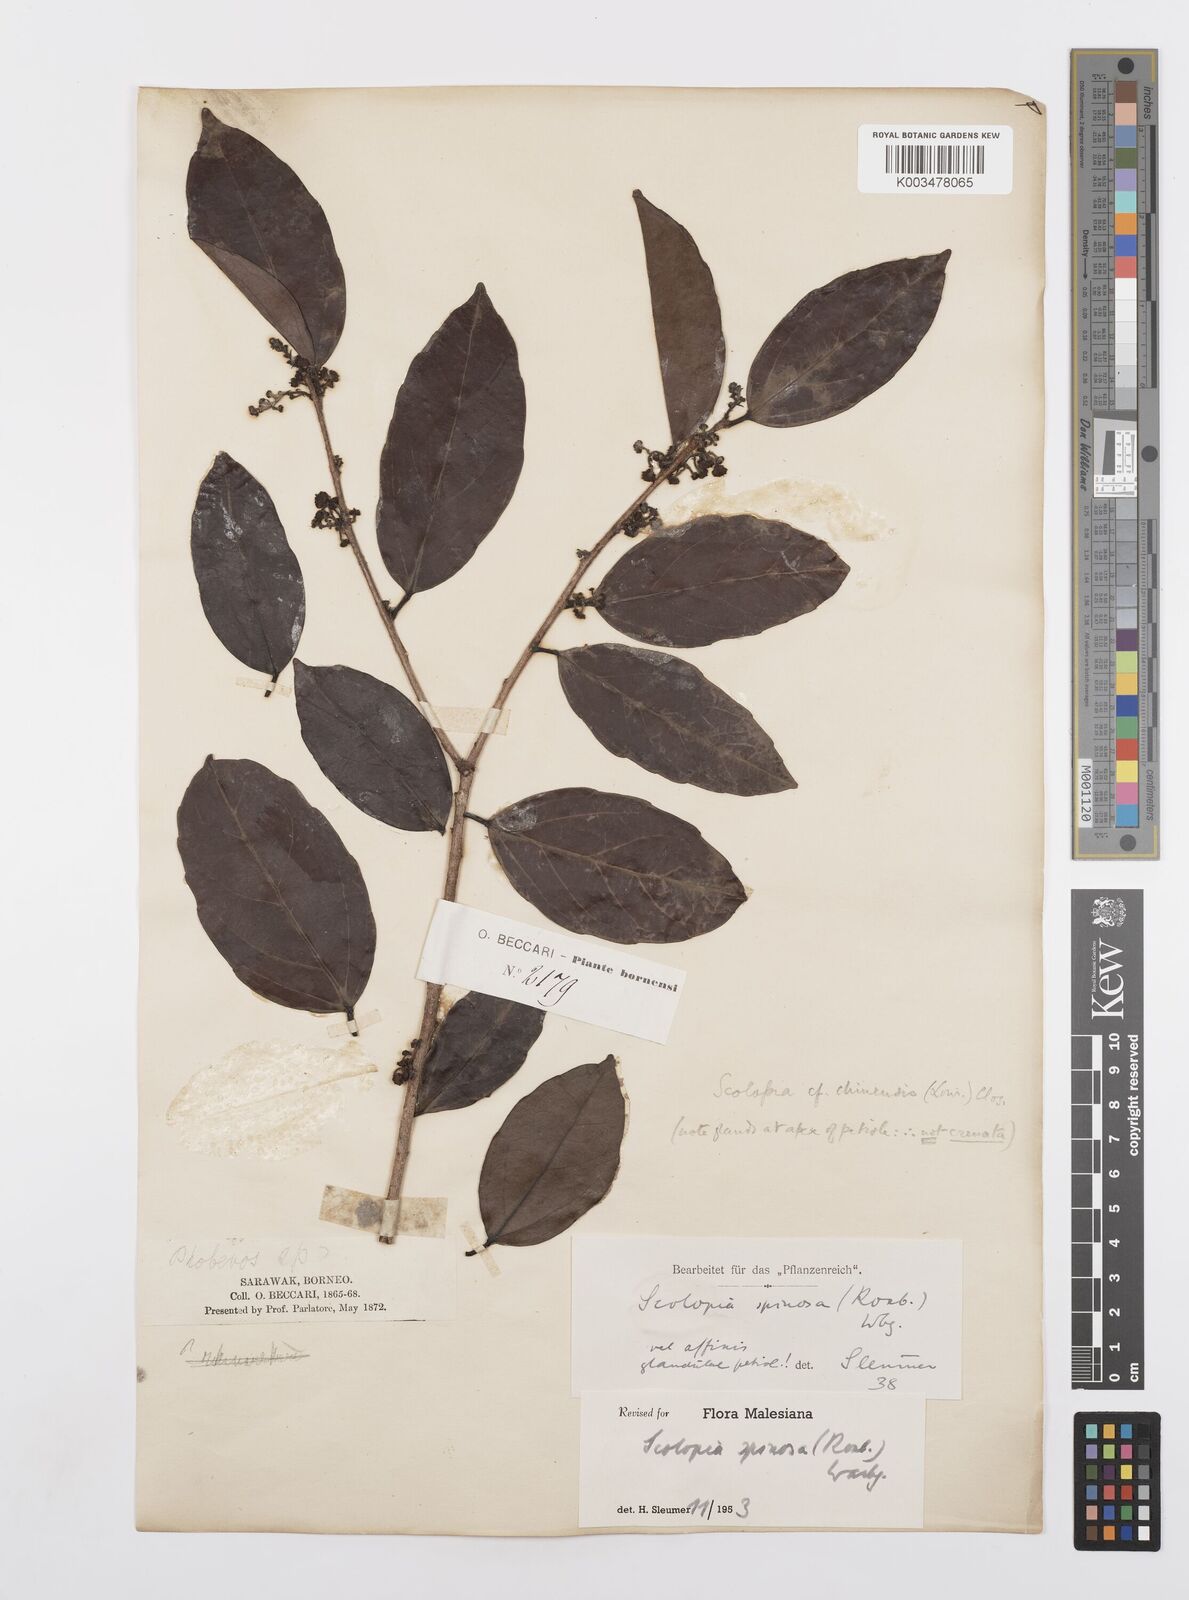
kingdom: Plantae
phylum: Tracheophyta
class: Magnoliopsida
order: Malpighiales
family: Salicaceae
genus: Scolopia
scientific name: Scolopia spinosa
